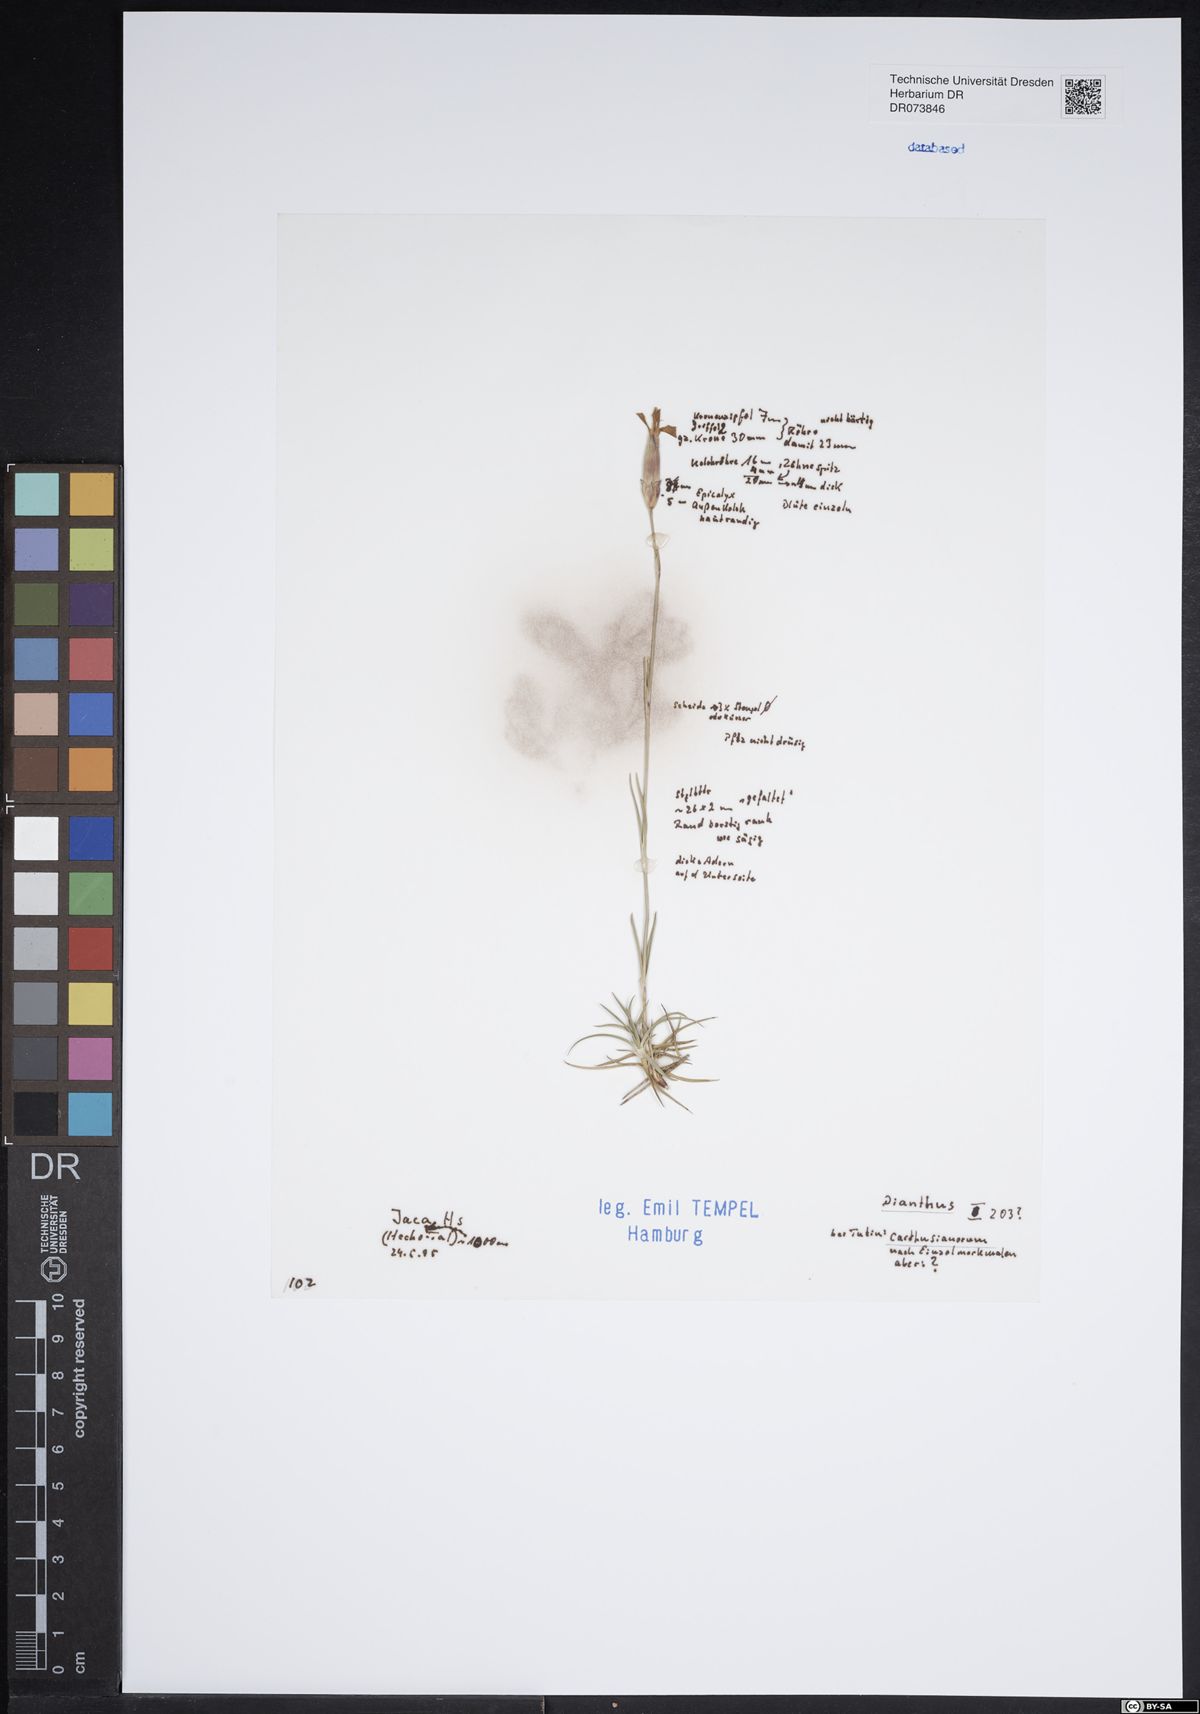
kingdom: Plantae
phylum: Tracheophyta
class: Magnoliopsida
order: Caryophyllales
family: Caryophyllaceae
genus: Dianthus
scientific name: Dianthus carthusianorum
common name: Carthusian pink
